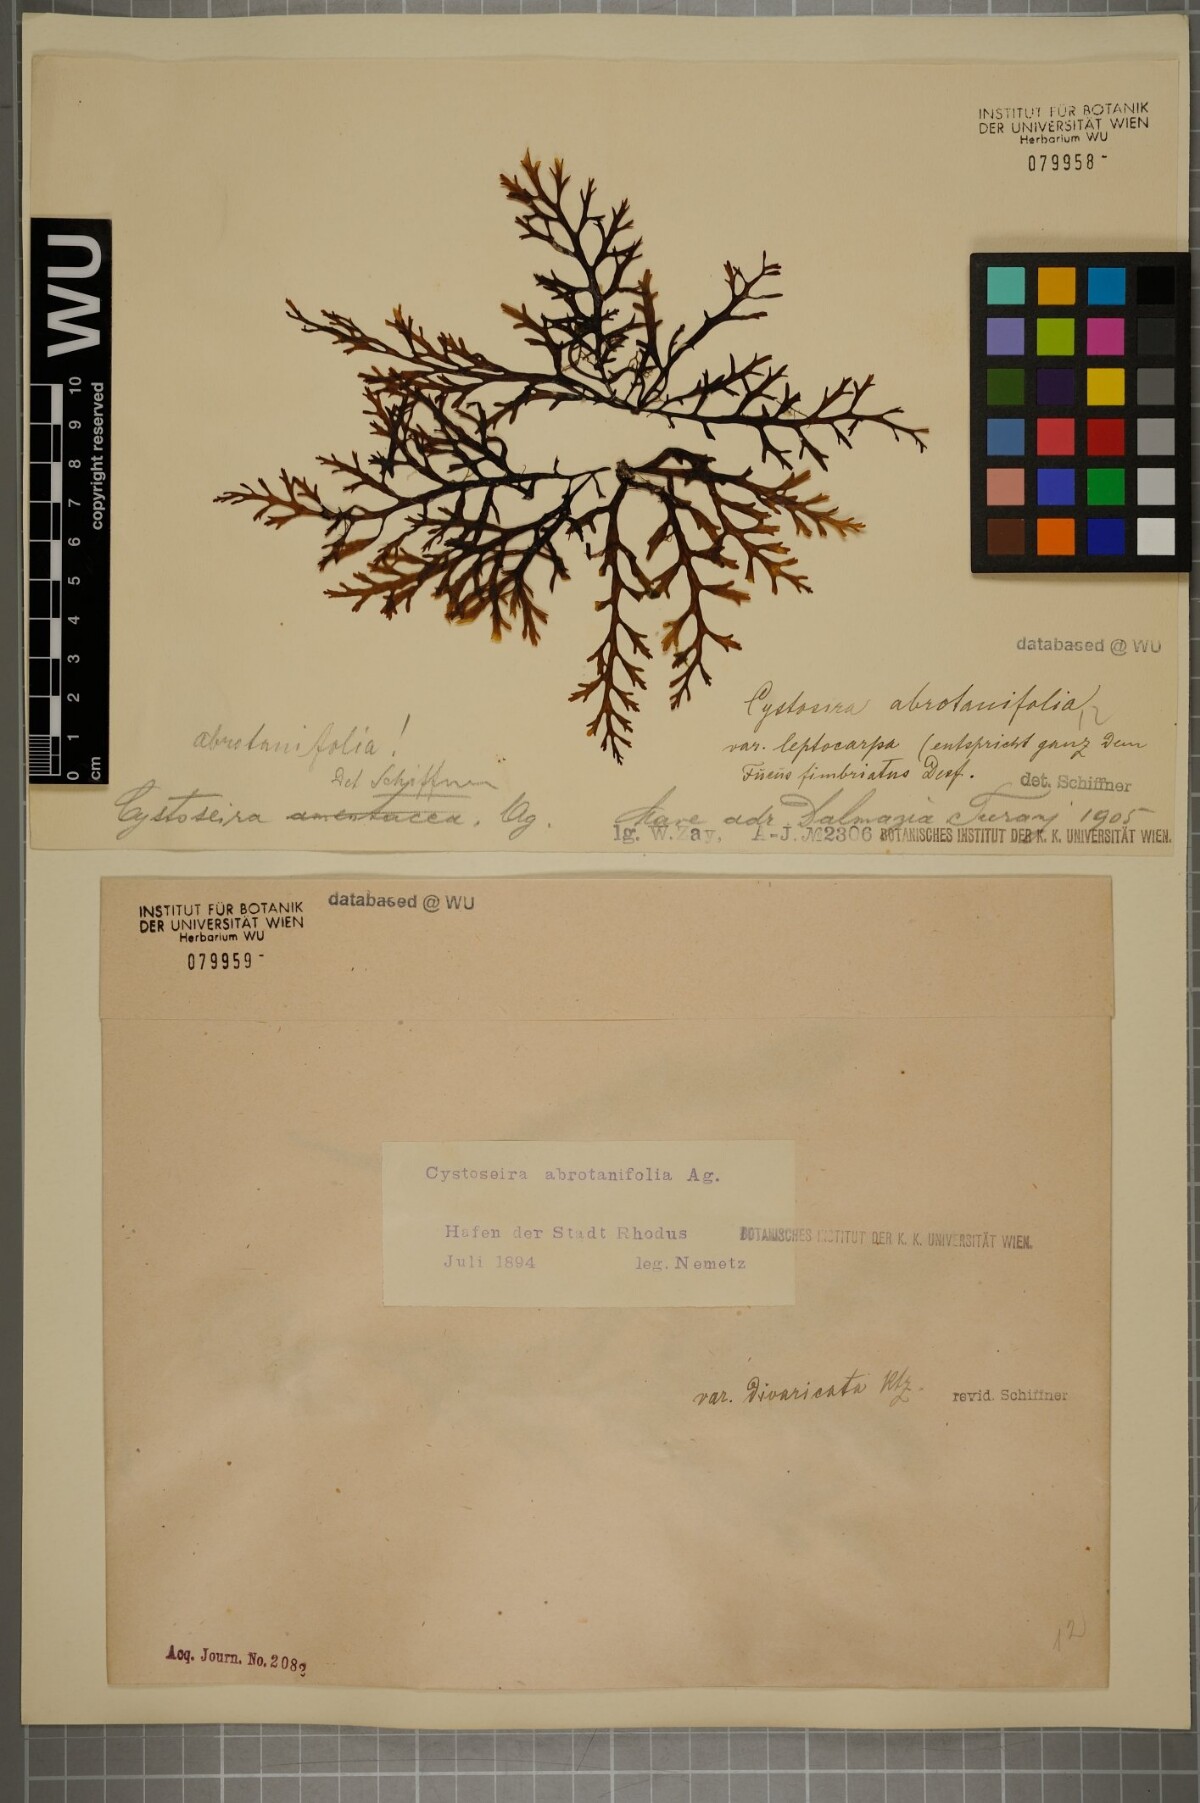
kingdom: Chromista
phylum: Ochrophyta
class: Phaeophyceae
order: Fucales
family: Sargassaceae
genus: Cystoseira
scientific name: Cystoseira foeniculacea
